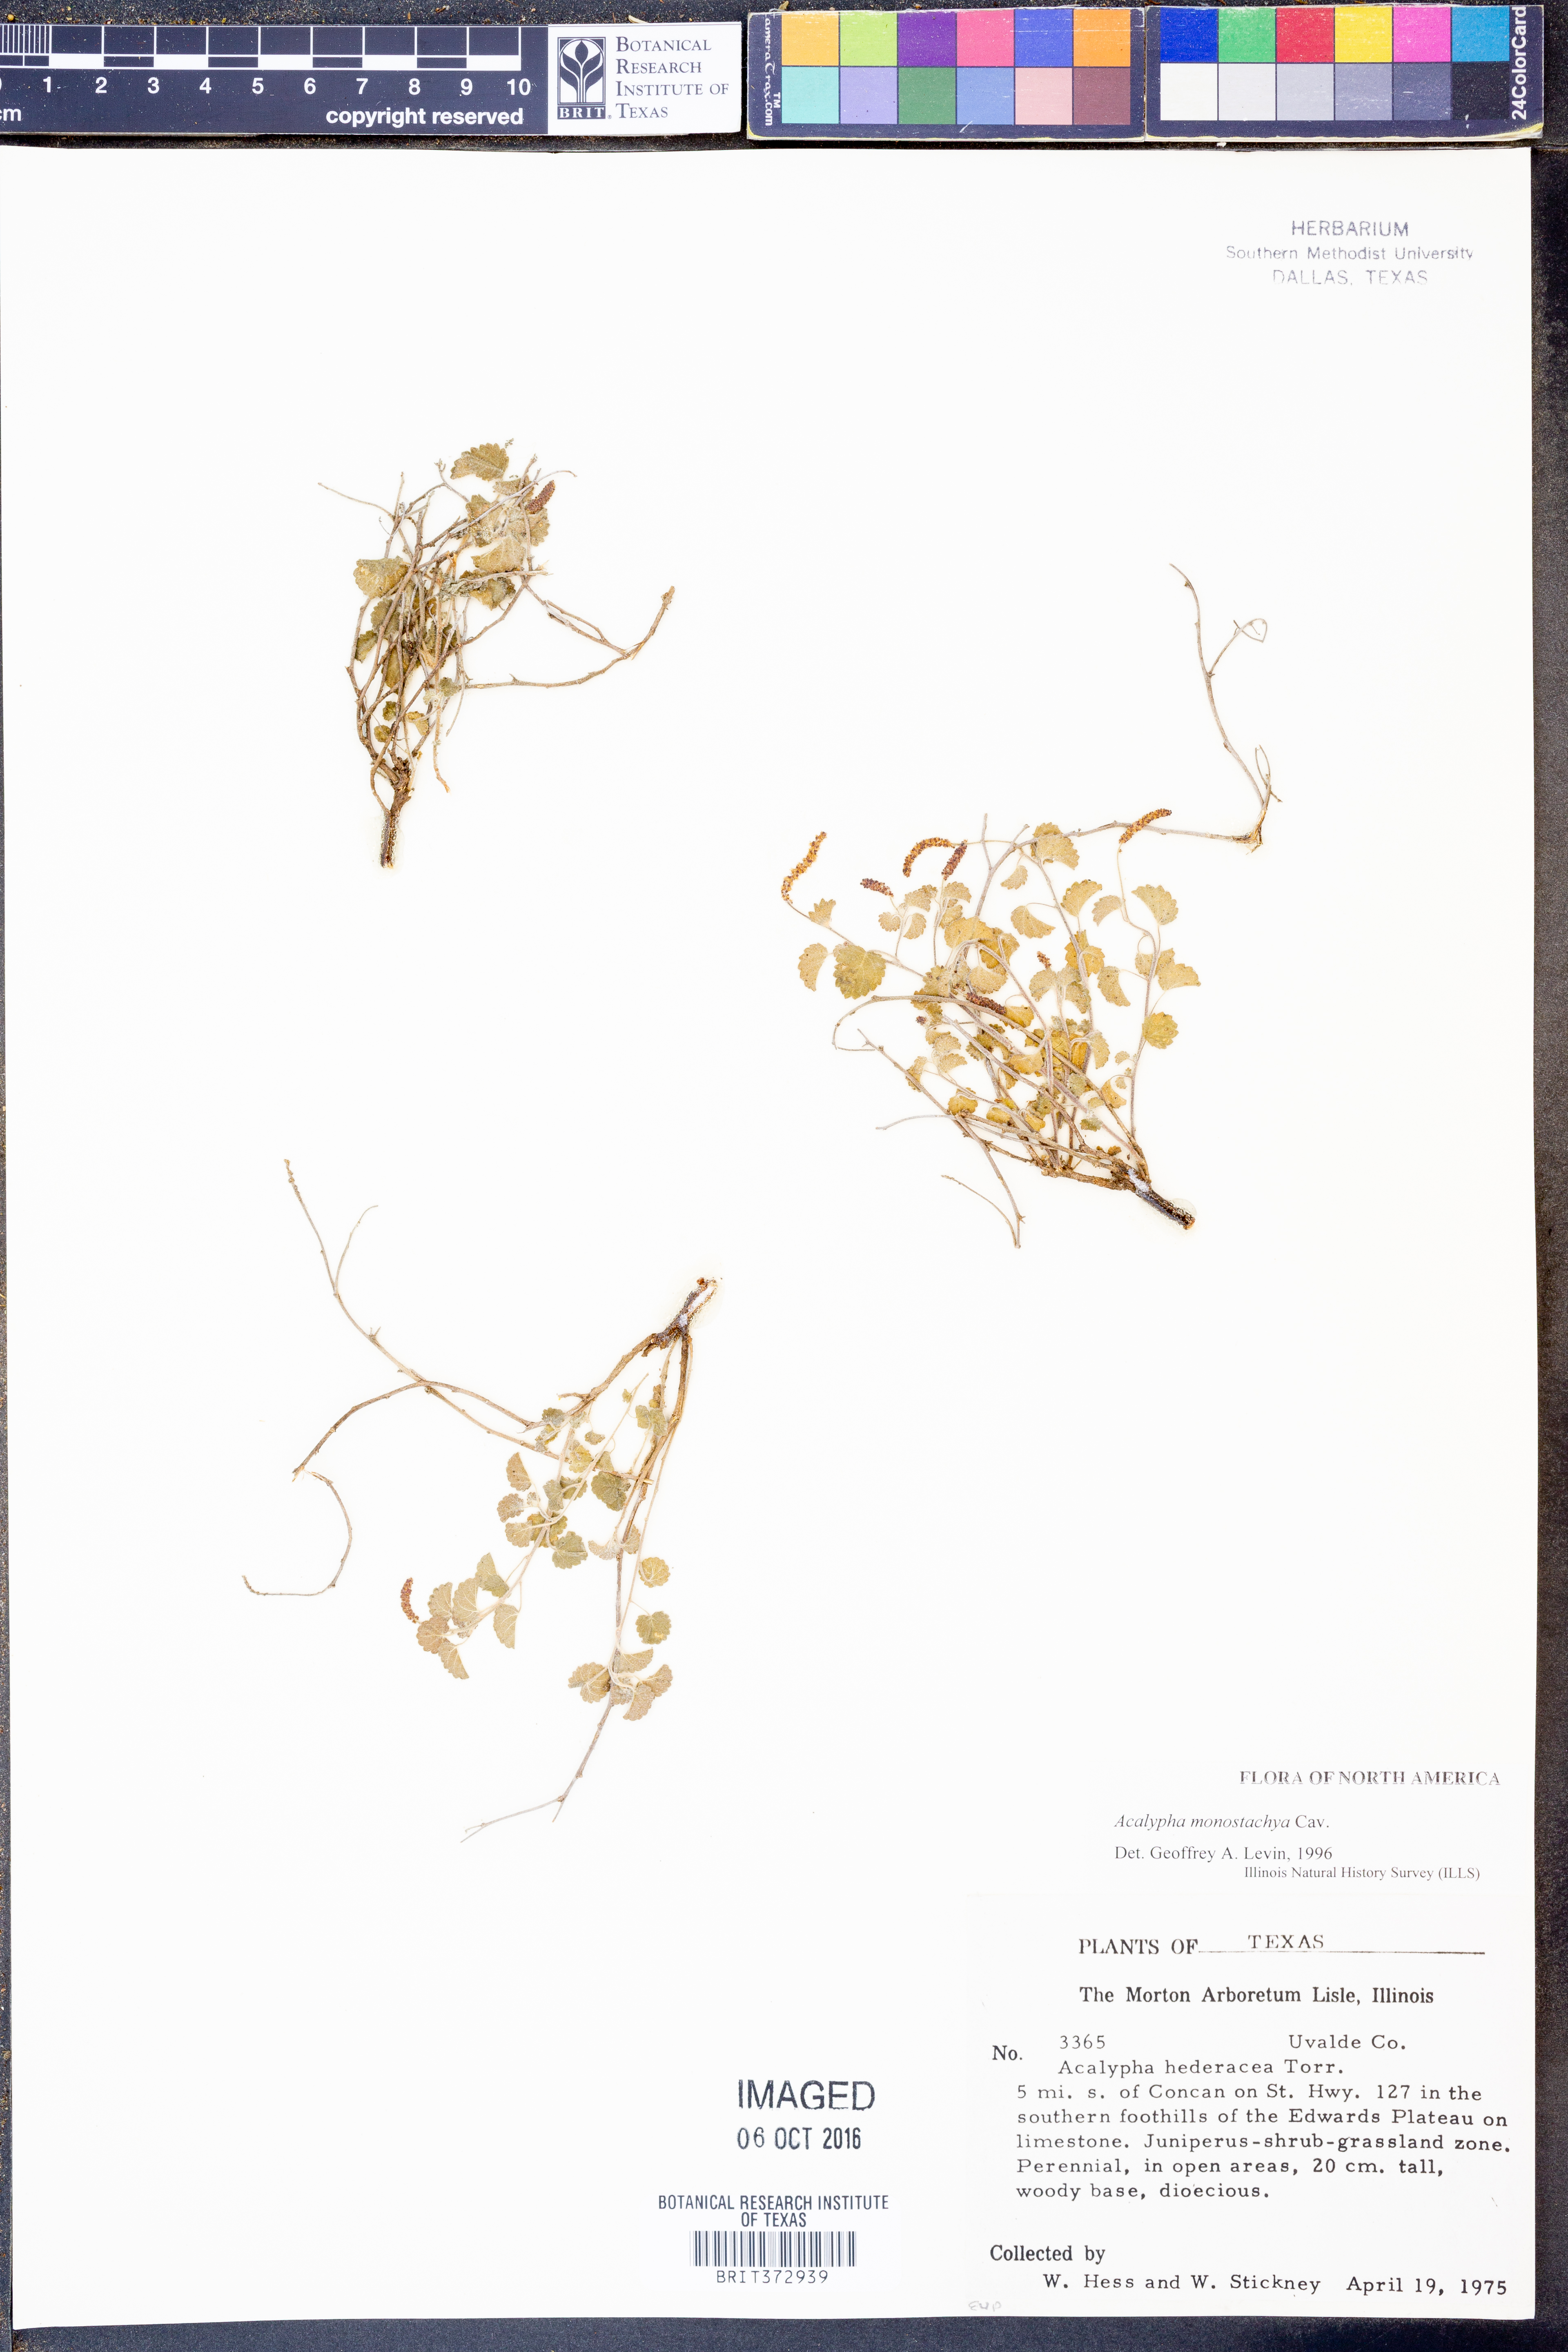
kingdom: Plantae
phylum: Tracheophyta
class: Magnoliopsida
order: Malpighiales
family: Euphorbiaceae
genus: Acalypha
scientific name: Acalypha monostachya
